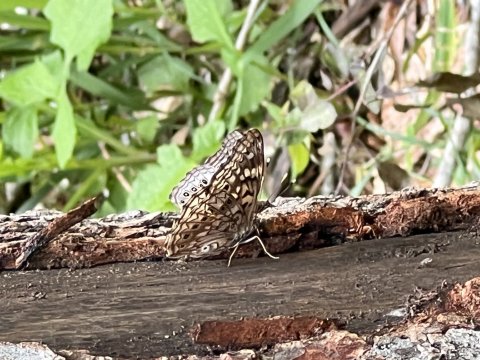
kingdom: Animalia
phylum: Arthropoda
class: Insecta
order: Lepidoptera
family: Nymphalidae
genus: Asterocampa
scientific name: Asterocampa celtis
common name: Hackberry Emperor
